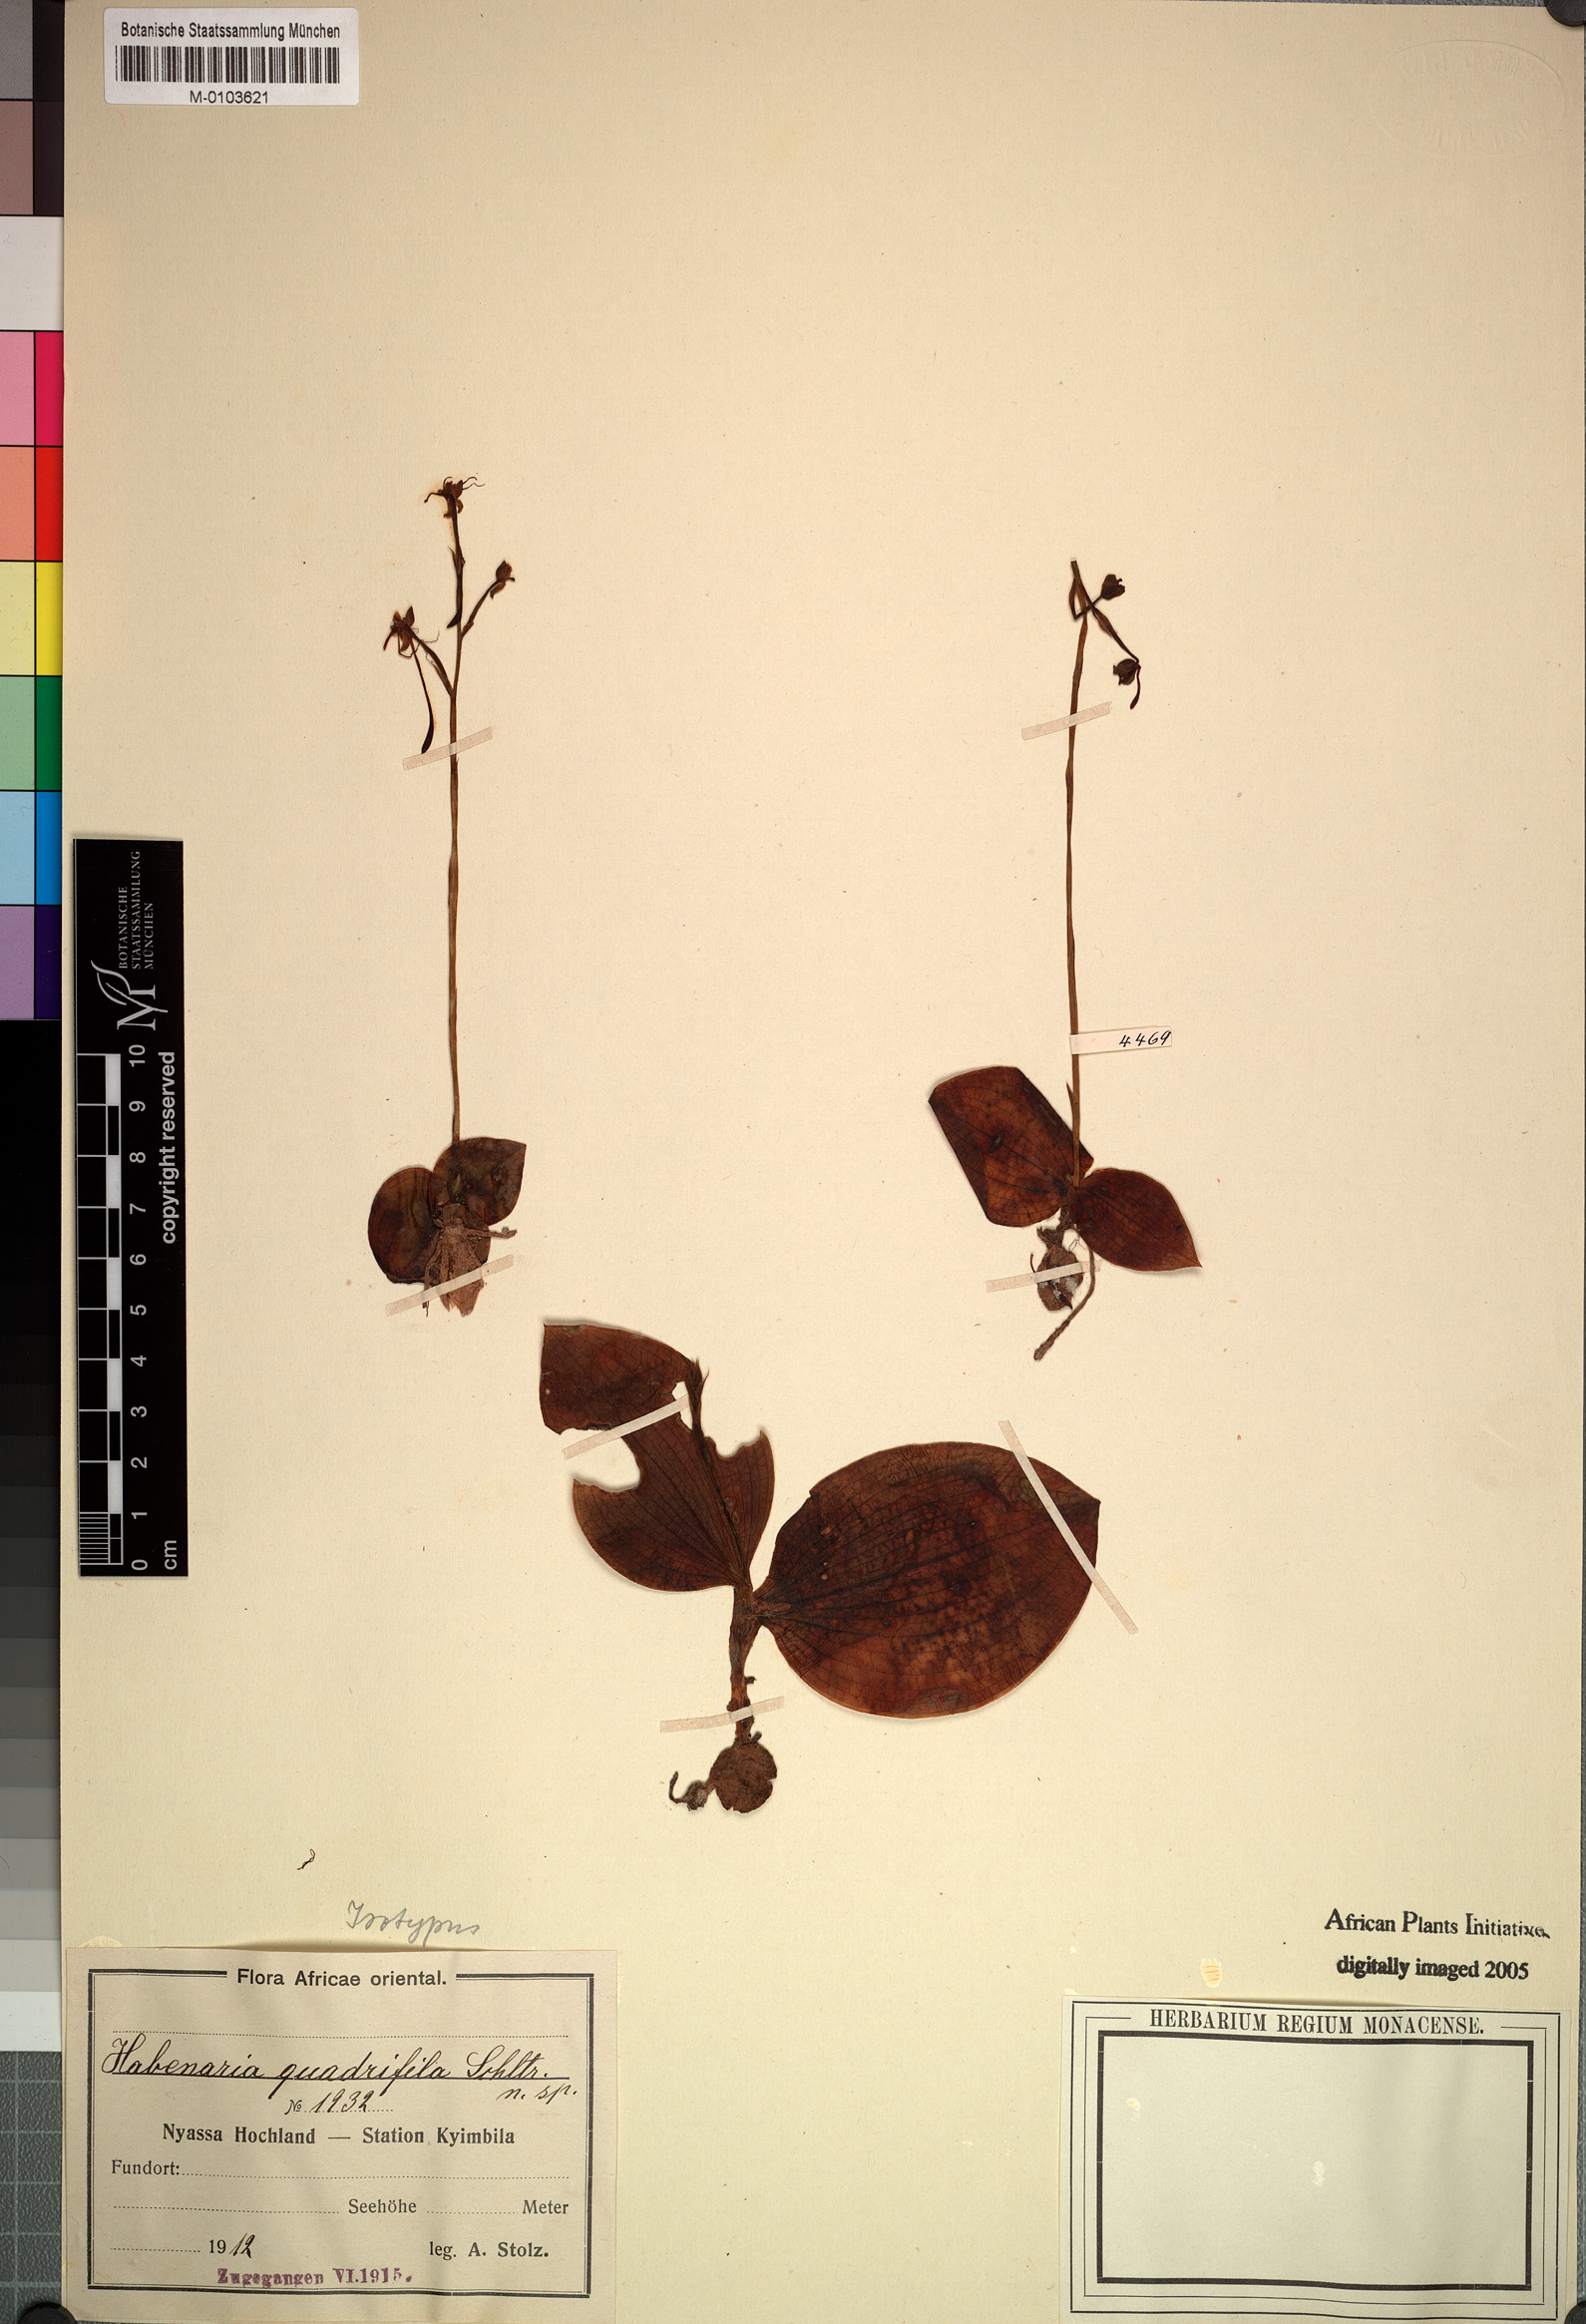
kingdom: Plantae
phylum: Tracheophyta
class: Liliopsida
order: Asparagales
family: Orchidaceae
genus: Habenaria
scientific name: Habenaria trilobulata
